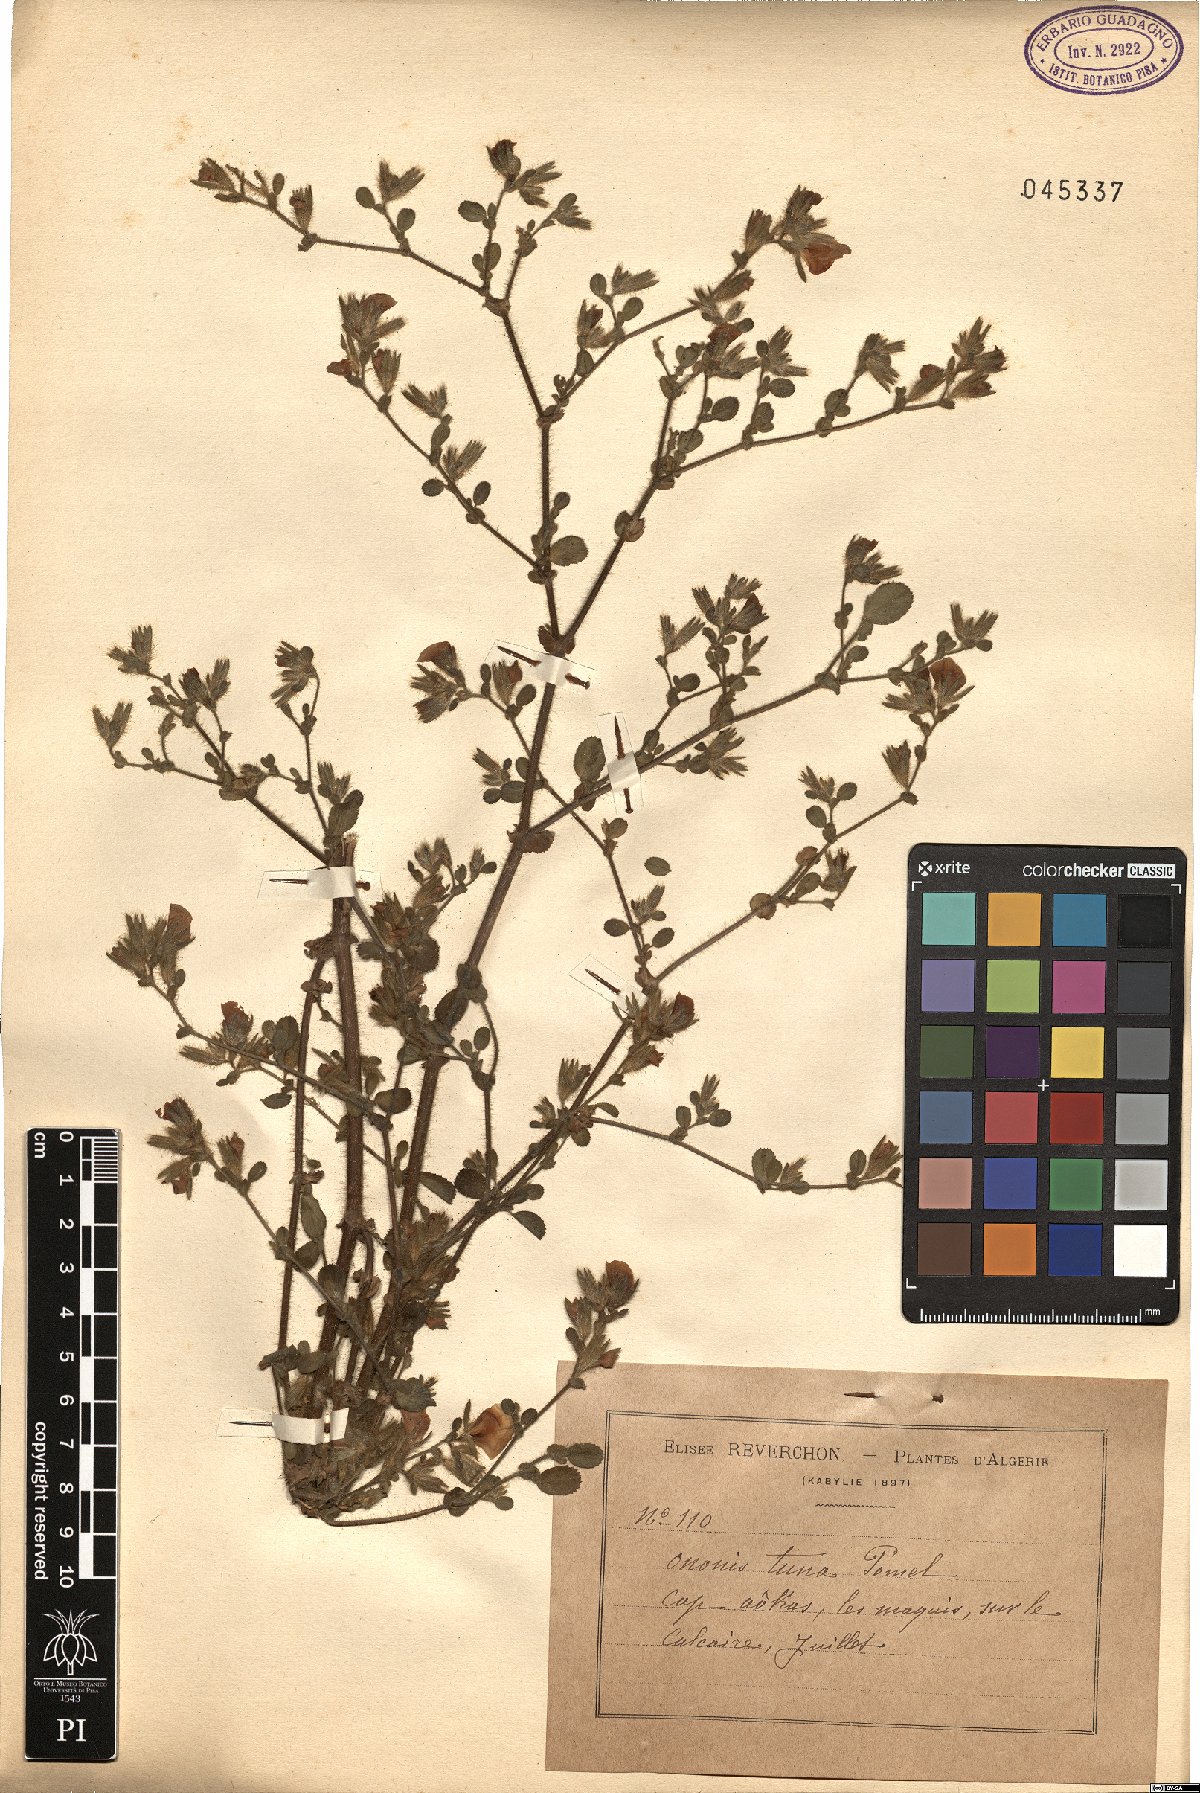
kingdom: Plantae
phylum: Tracheophyta
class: Magnoliopsida
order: Fabales
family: Fabaceae
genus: Ononis
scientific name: Ononis alba
